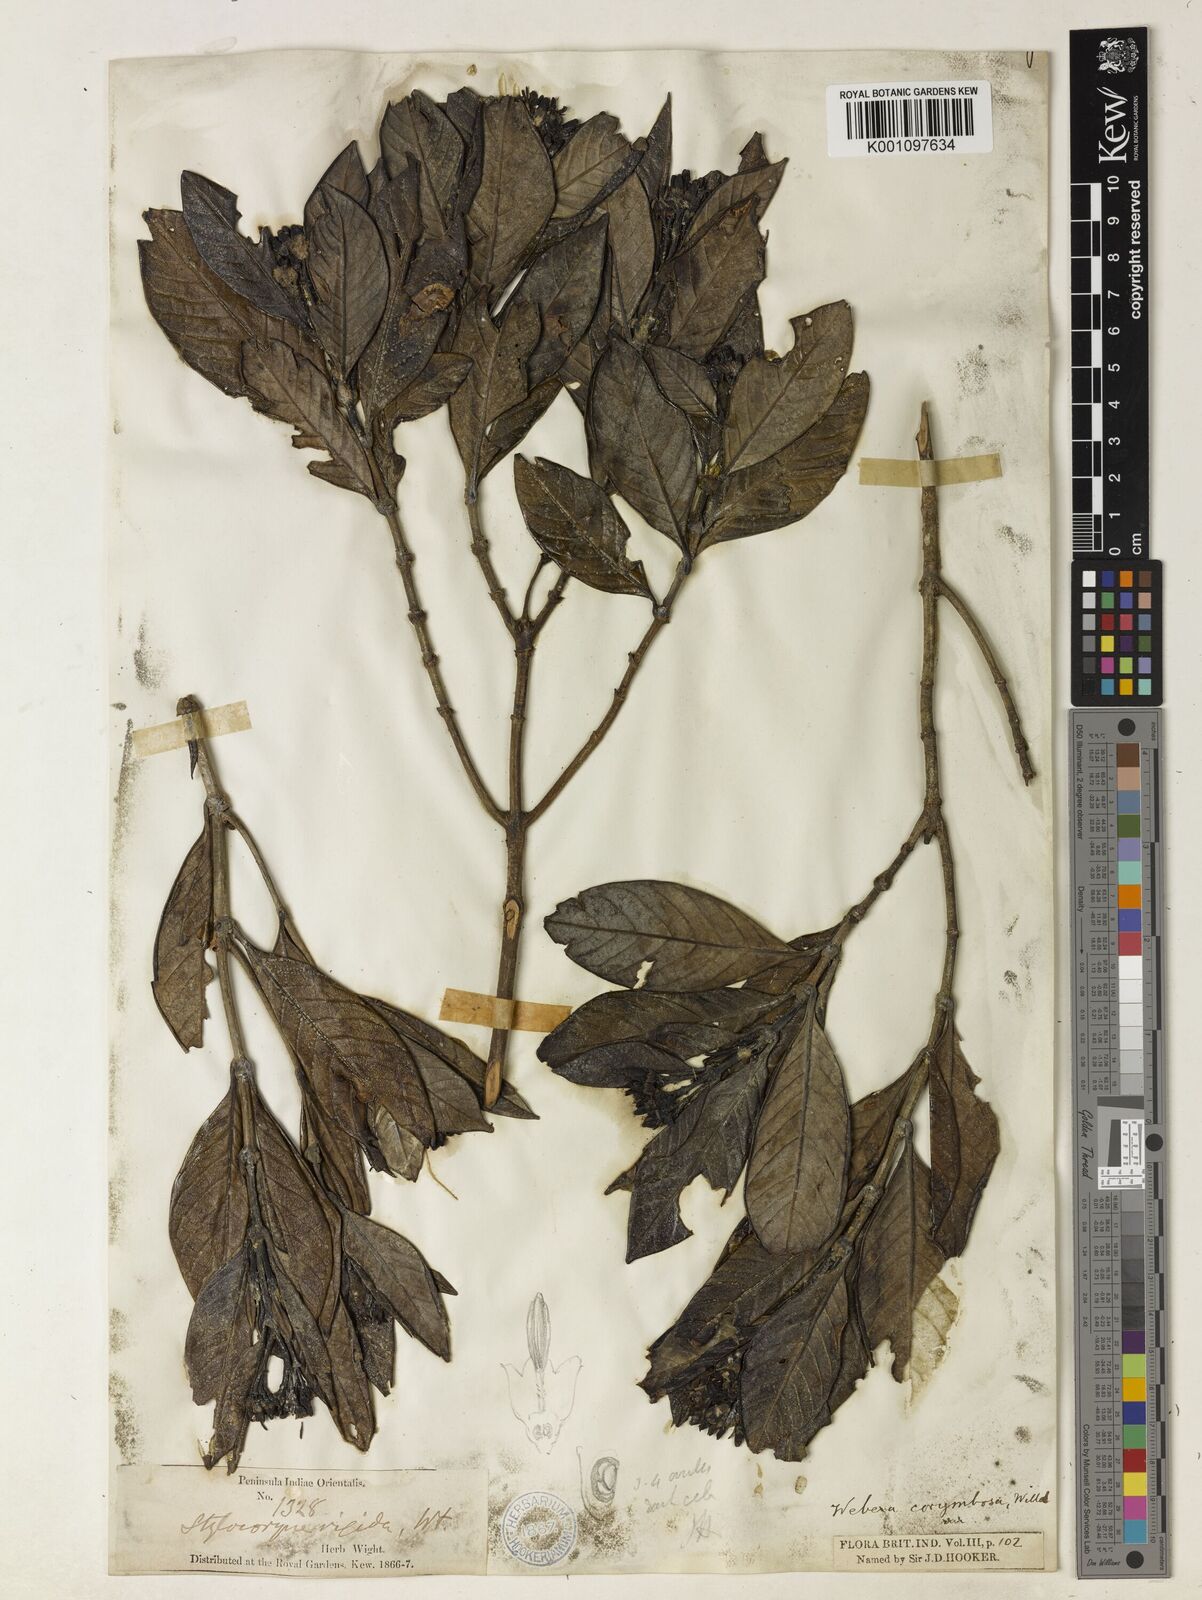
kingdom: Plantae
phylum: Tracheophyta
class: Magnoliopsida
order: Gentianales
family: Rubiaceae
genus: Tarenna
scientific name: Tarenna
